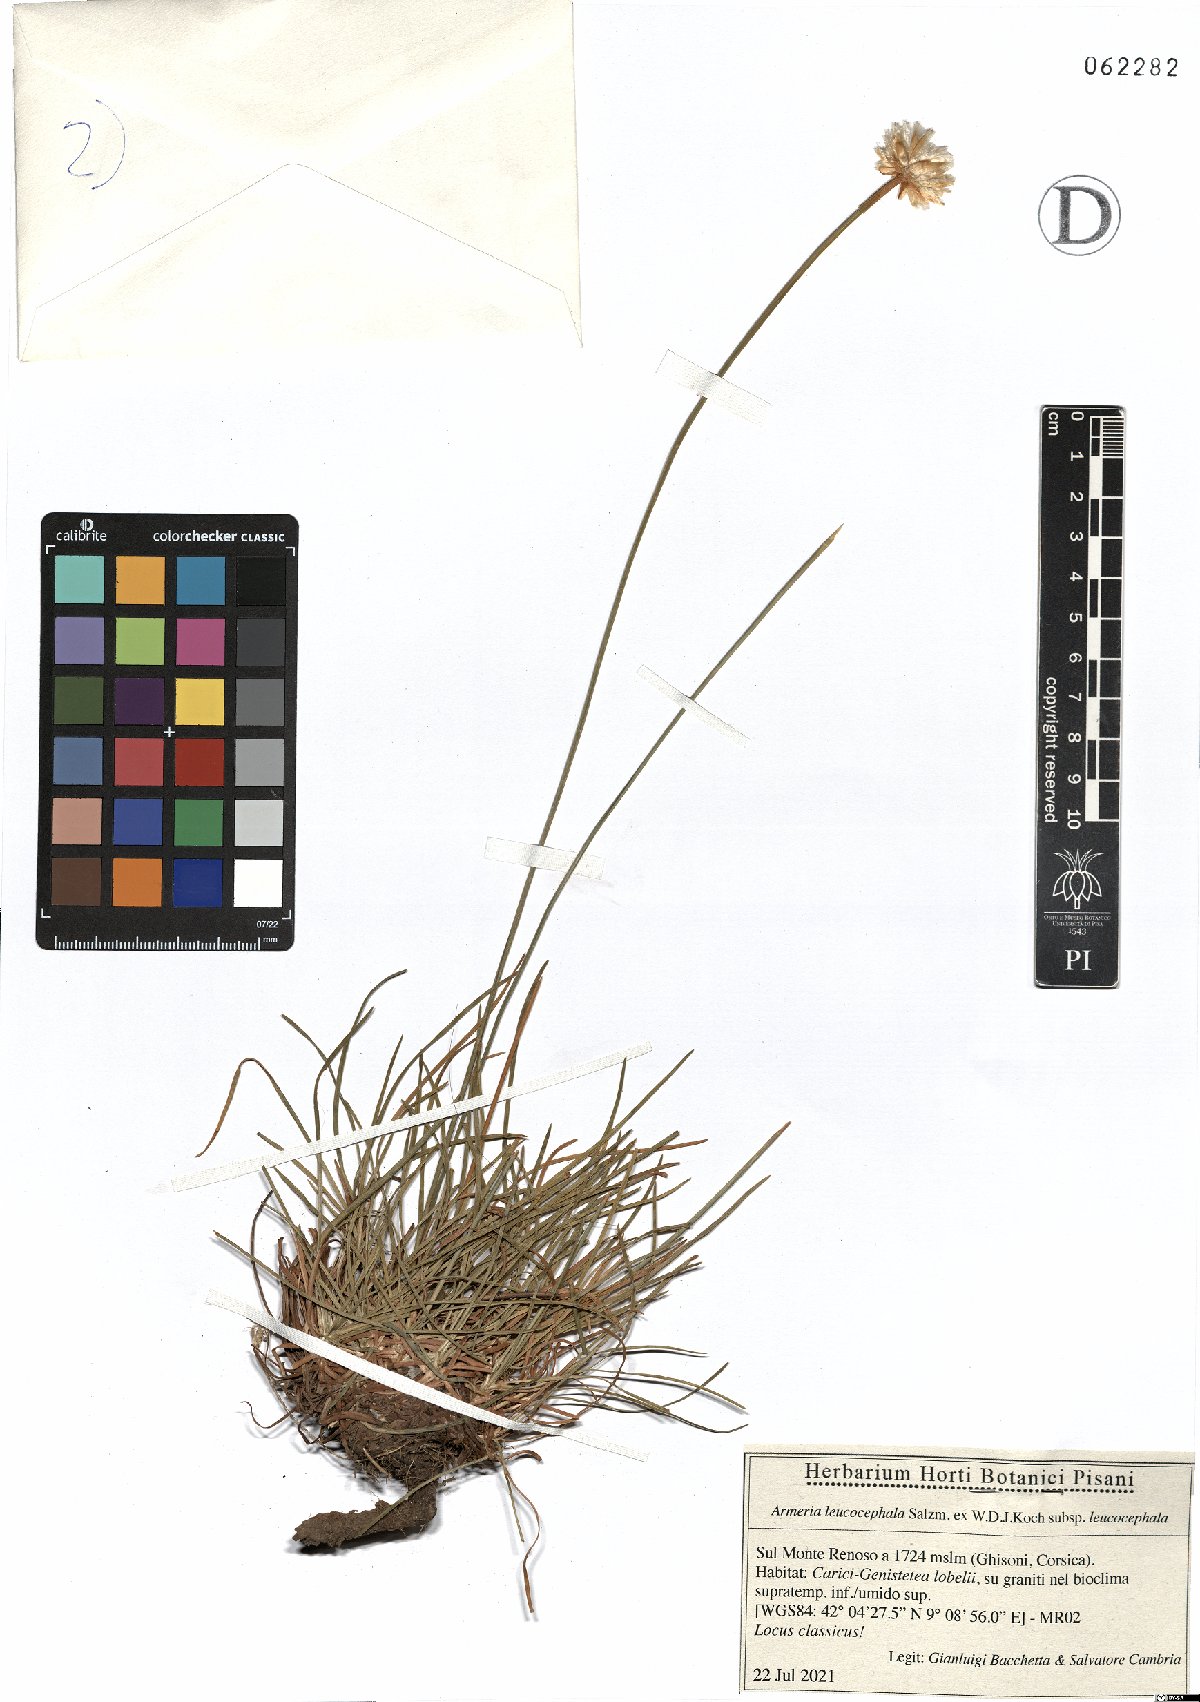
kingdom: Plantae
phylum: Tracheophyta
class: Magnoliopsida
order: Caryophyllales
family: Plumbaginaceae
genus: Armeria
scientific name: Armeria leucocephala
